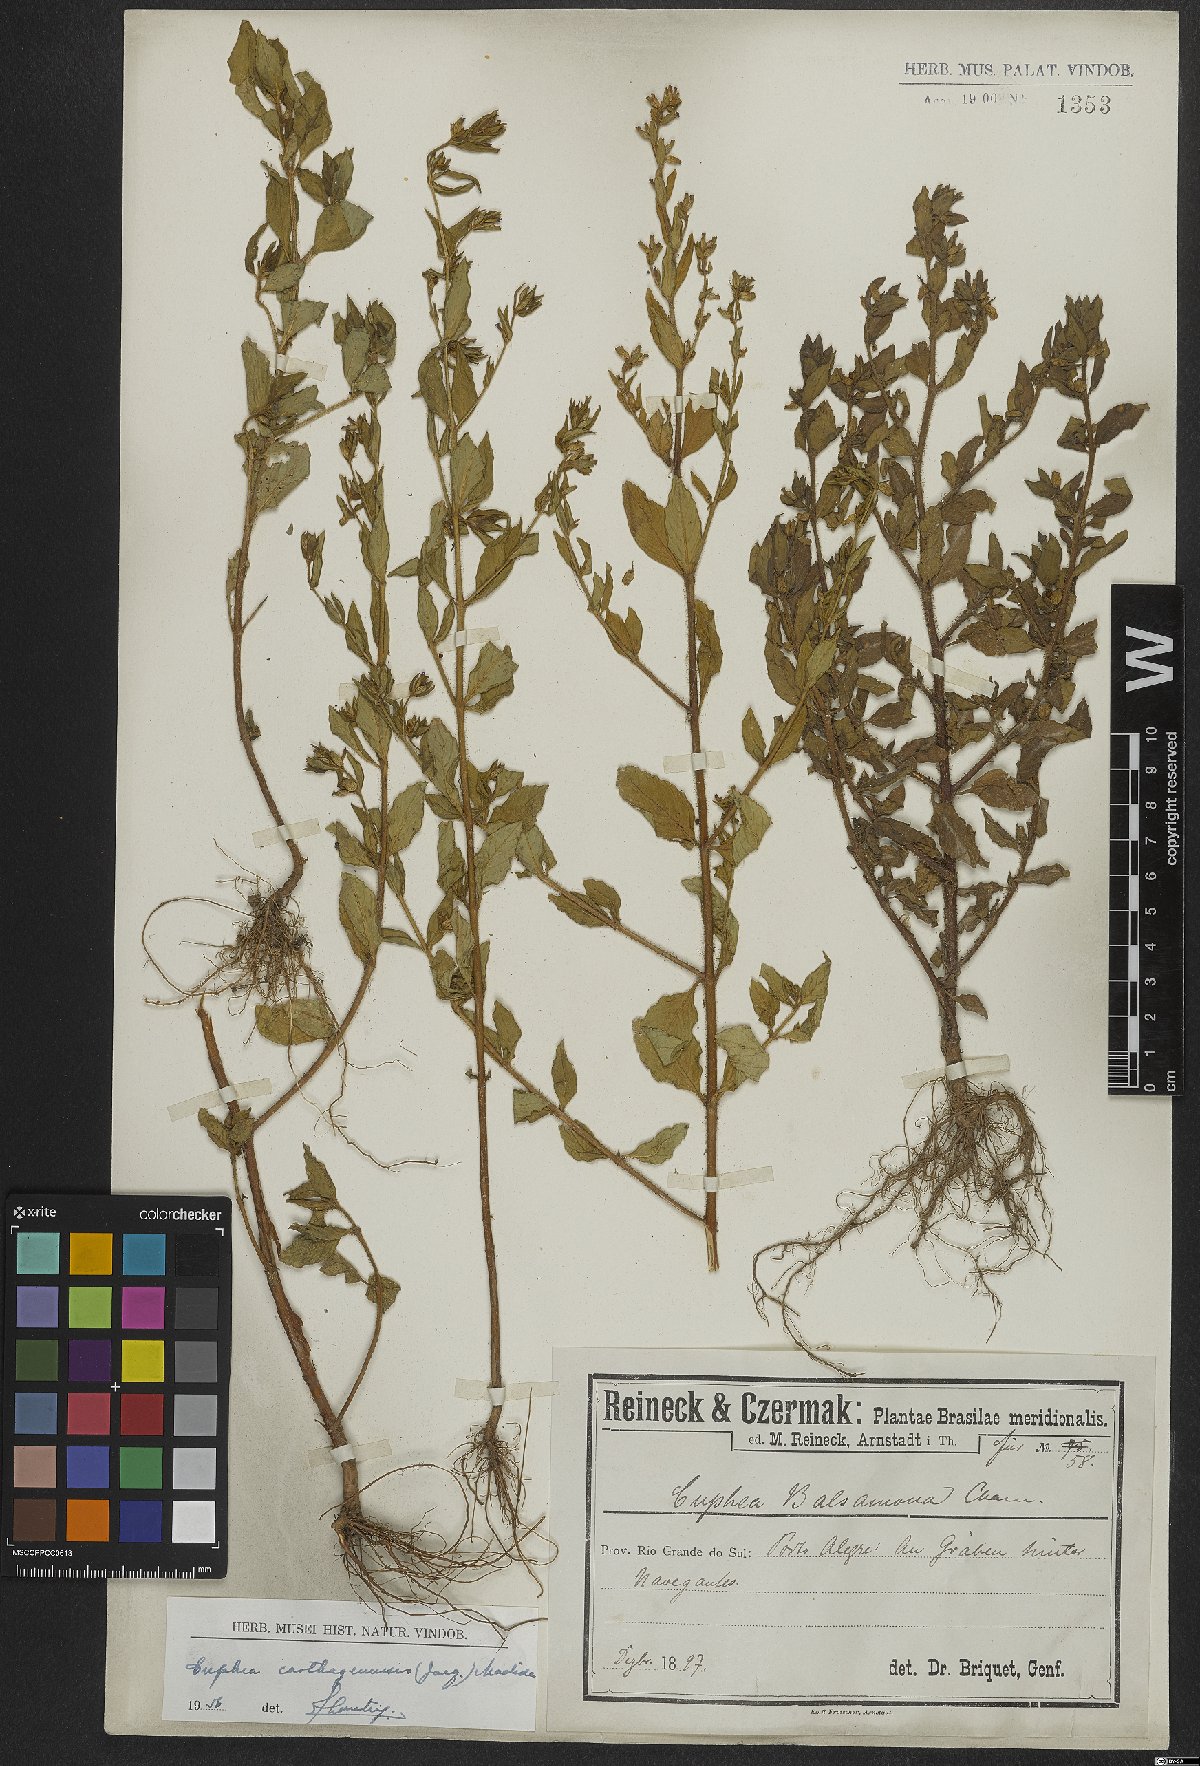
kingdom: Plantae
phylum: Tracheophyta
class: Magnoliopsida
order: Myrtales
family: Lythraceae
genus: Cuphea
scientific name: Cuphea carthagenensis
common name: Colombian waxweed
